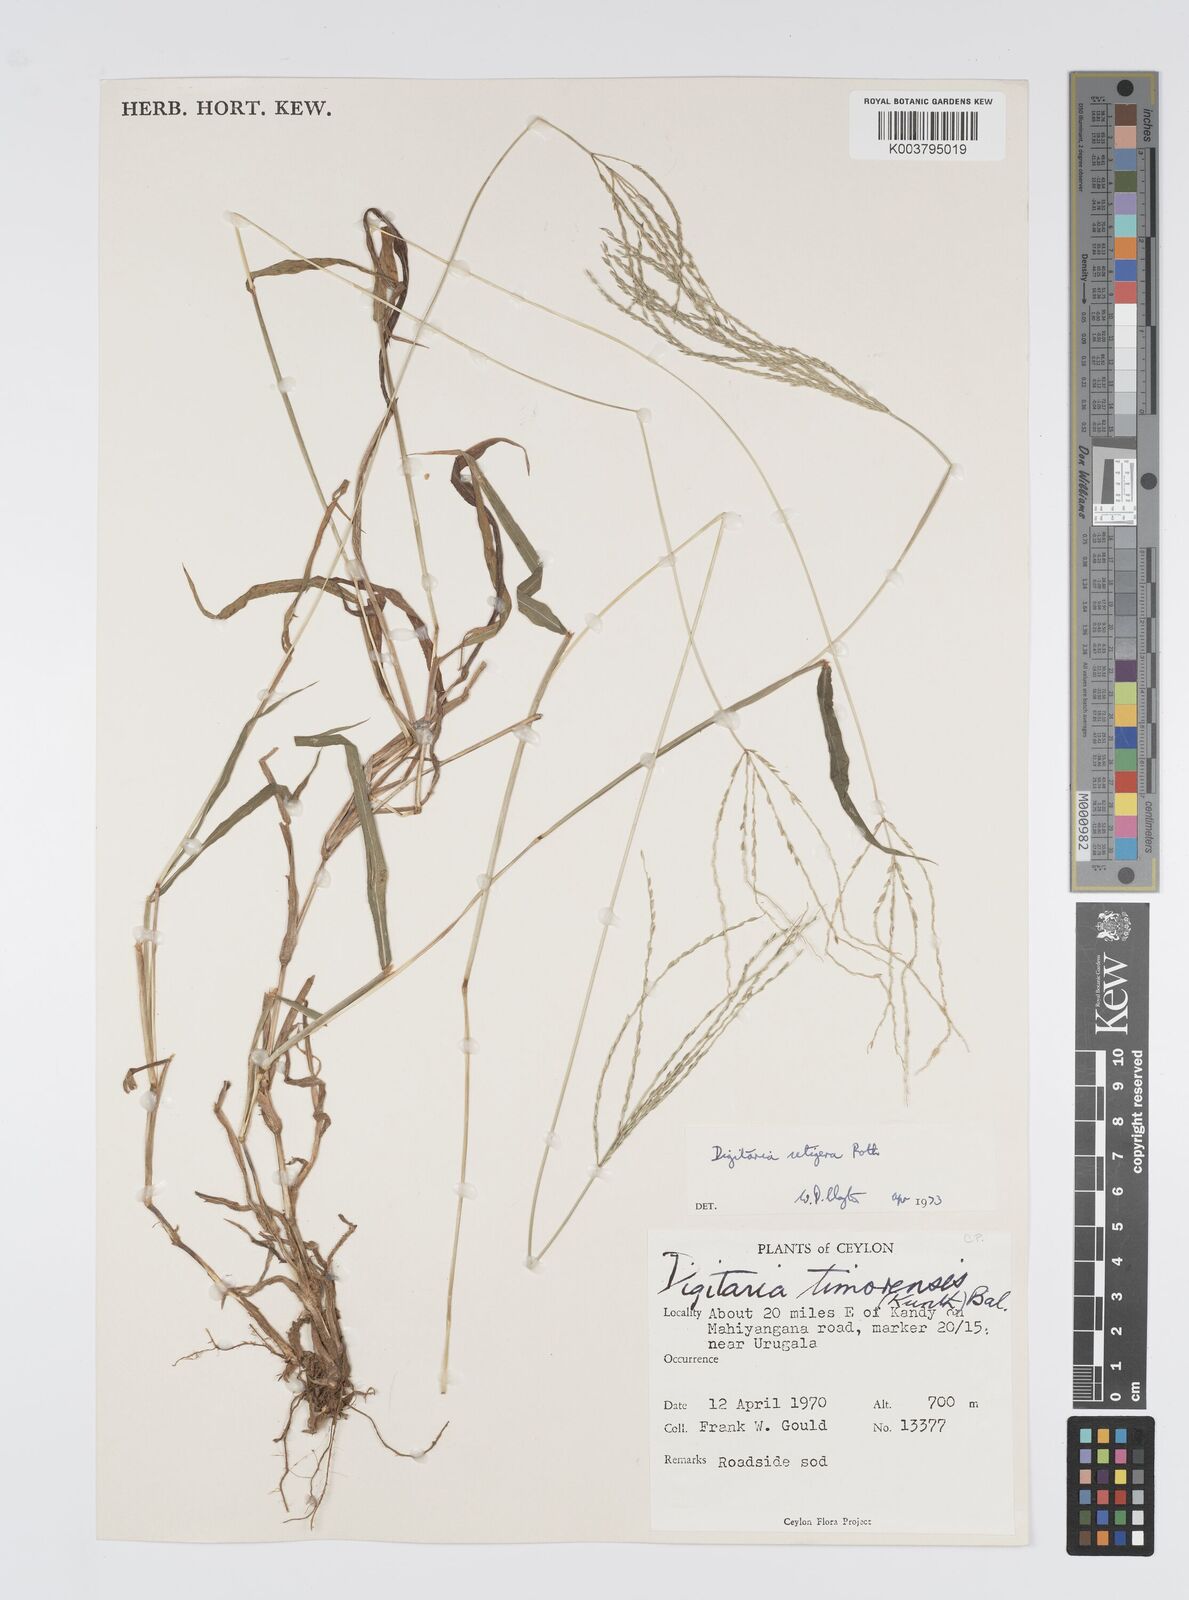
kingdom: Plantae
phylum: Tracheophyta
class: Liliopsida
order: Poales
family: Poaceae
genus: Digitaria
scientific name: Digitaria setigera
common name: East indian crabgrass
